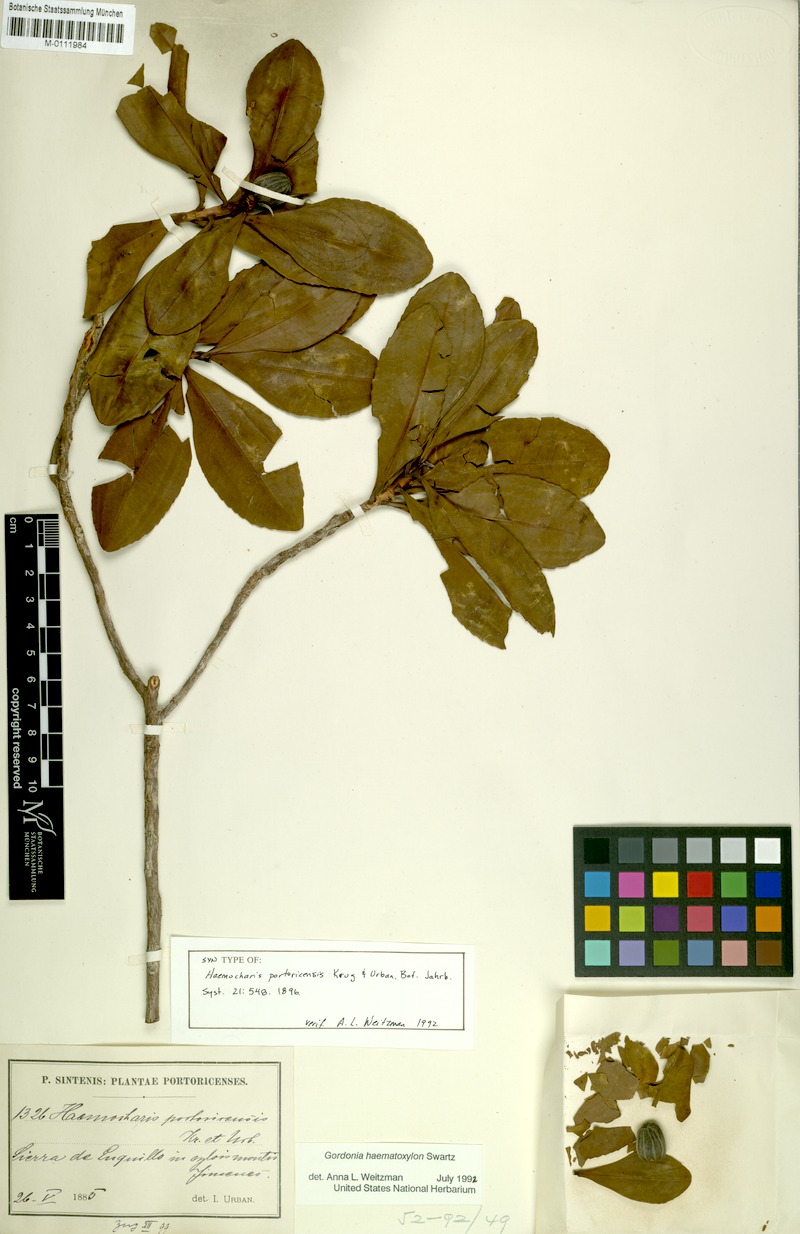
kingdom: Plantae
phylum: Tracheophyta
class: Magnoliopsida
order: Ericales
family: Theaceae
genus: Gordonia
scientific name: Gordonia portoricensis
